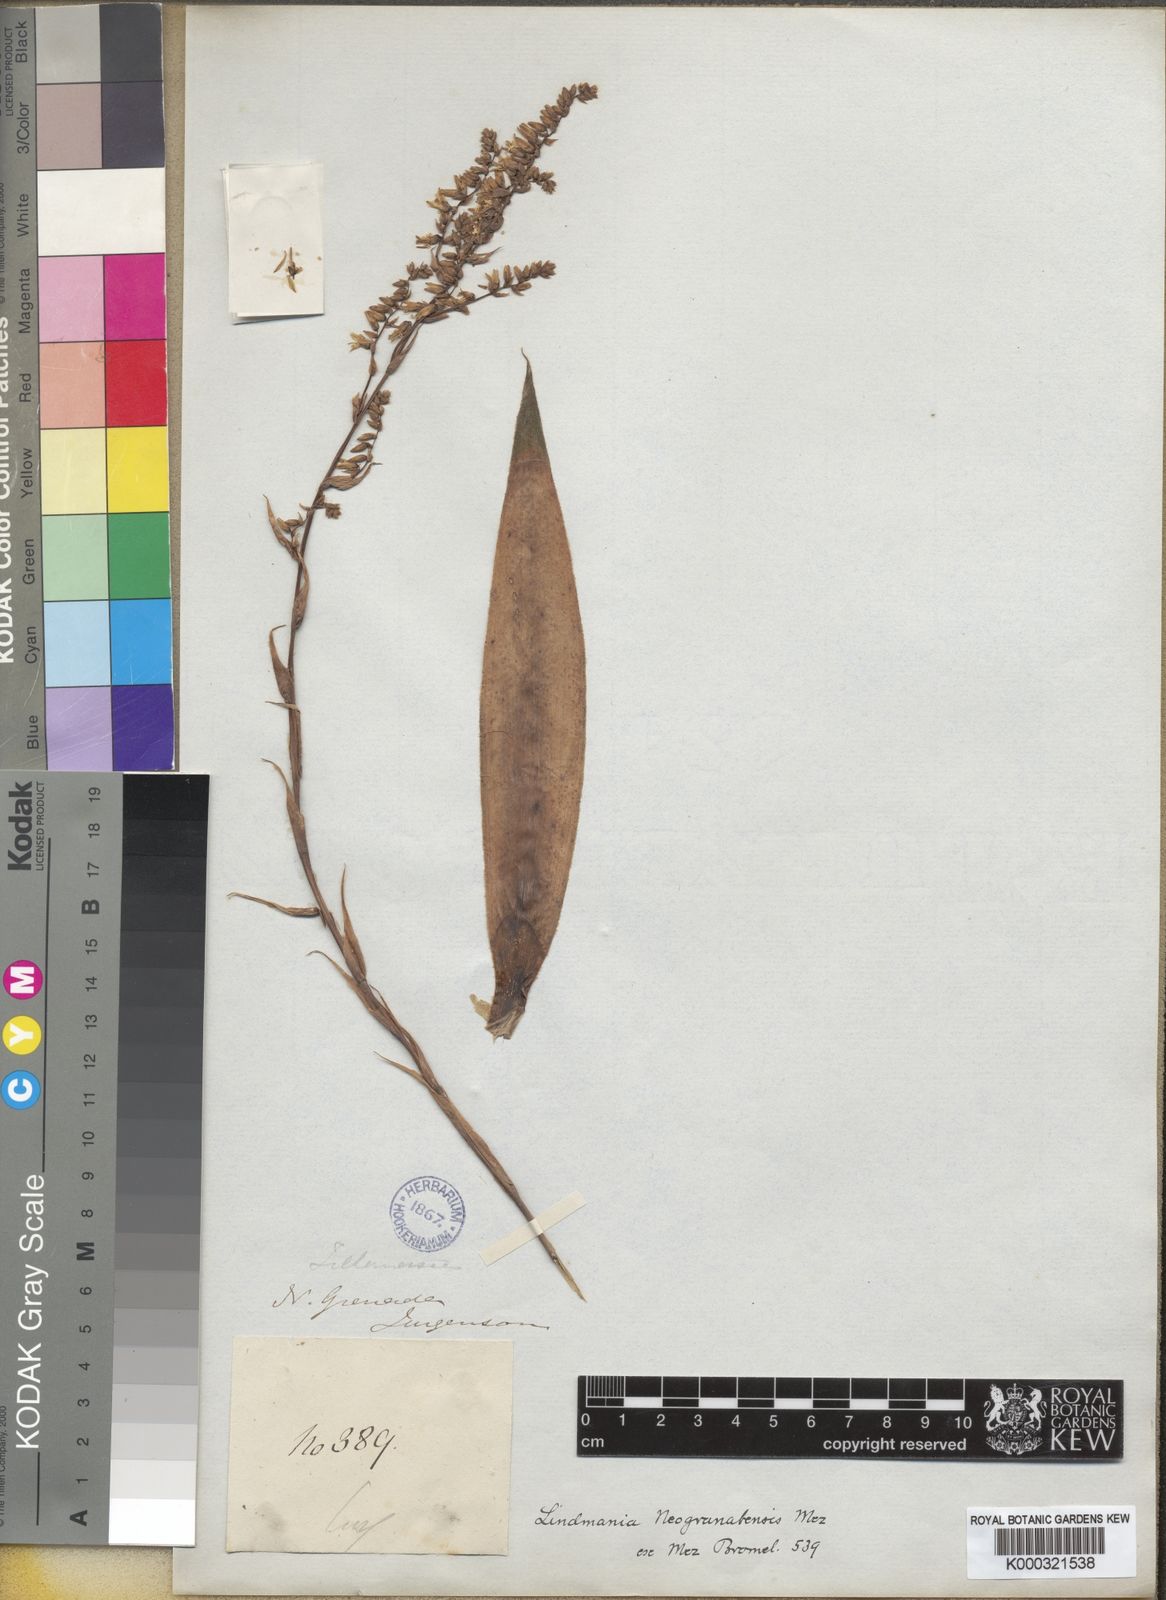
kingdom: Plantae
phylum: Tracheophyta
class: Liliopsida
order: Poales
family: Bromeliaceae
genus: Fosterella
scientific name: Fosterella micrantha
